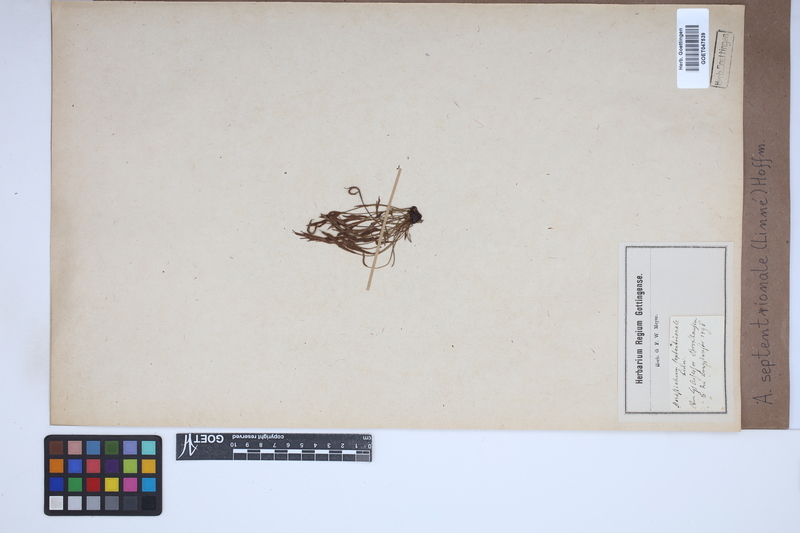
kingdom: Plantae
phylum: Tracheophyta
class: Polypodiopsida
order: Polypodiales
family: Aspleniaceae
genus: Asplenium
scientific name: Asplenium septentrionale
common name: Forked spleenwort
